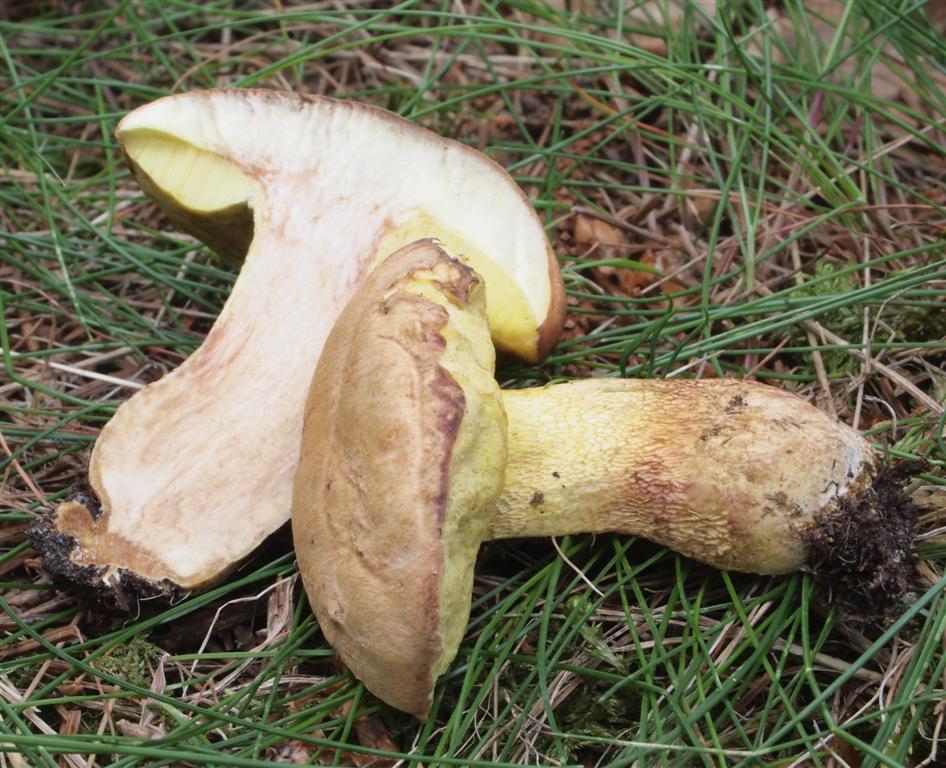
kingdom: Fungi
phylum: Basidiomycota
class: Agaricomycetes
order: Boletales
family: Boletaceae
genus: Butyriboletus
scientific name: Butyriboletus appendiculatus
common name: tenstokket rørhat
